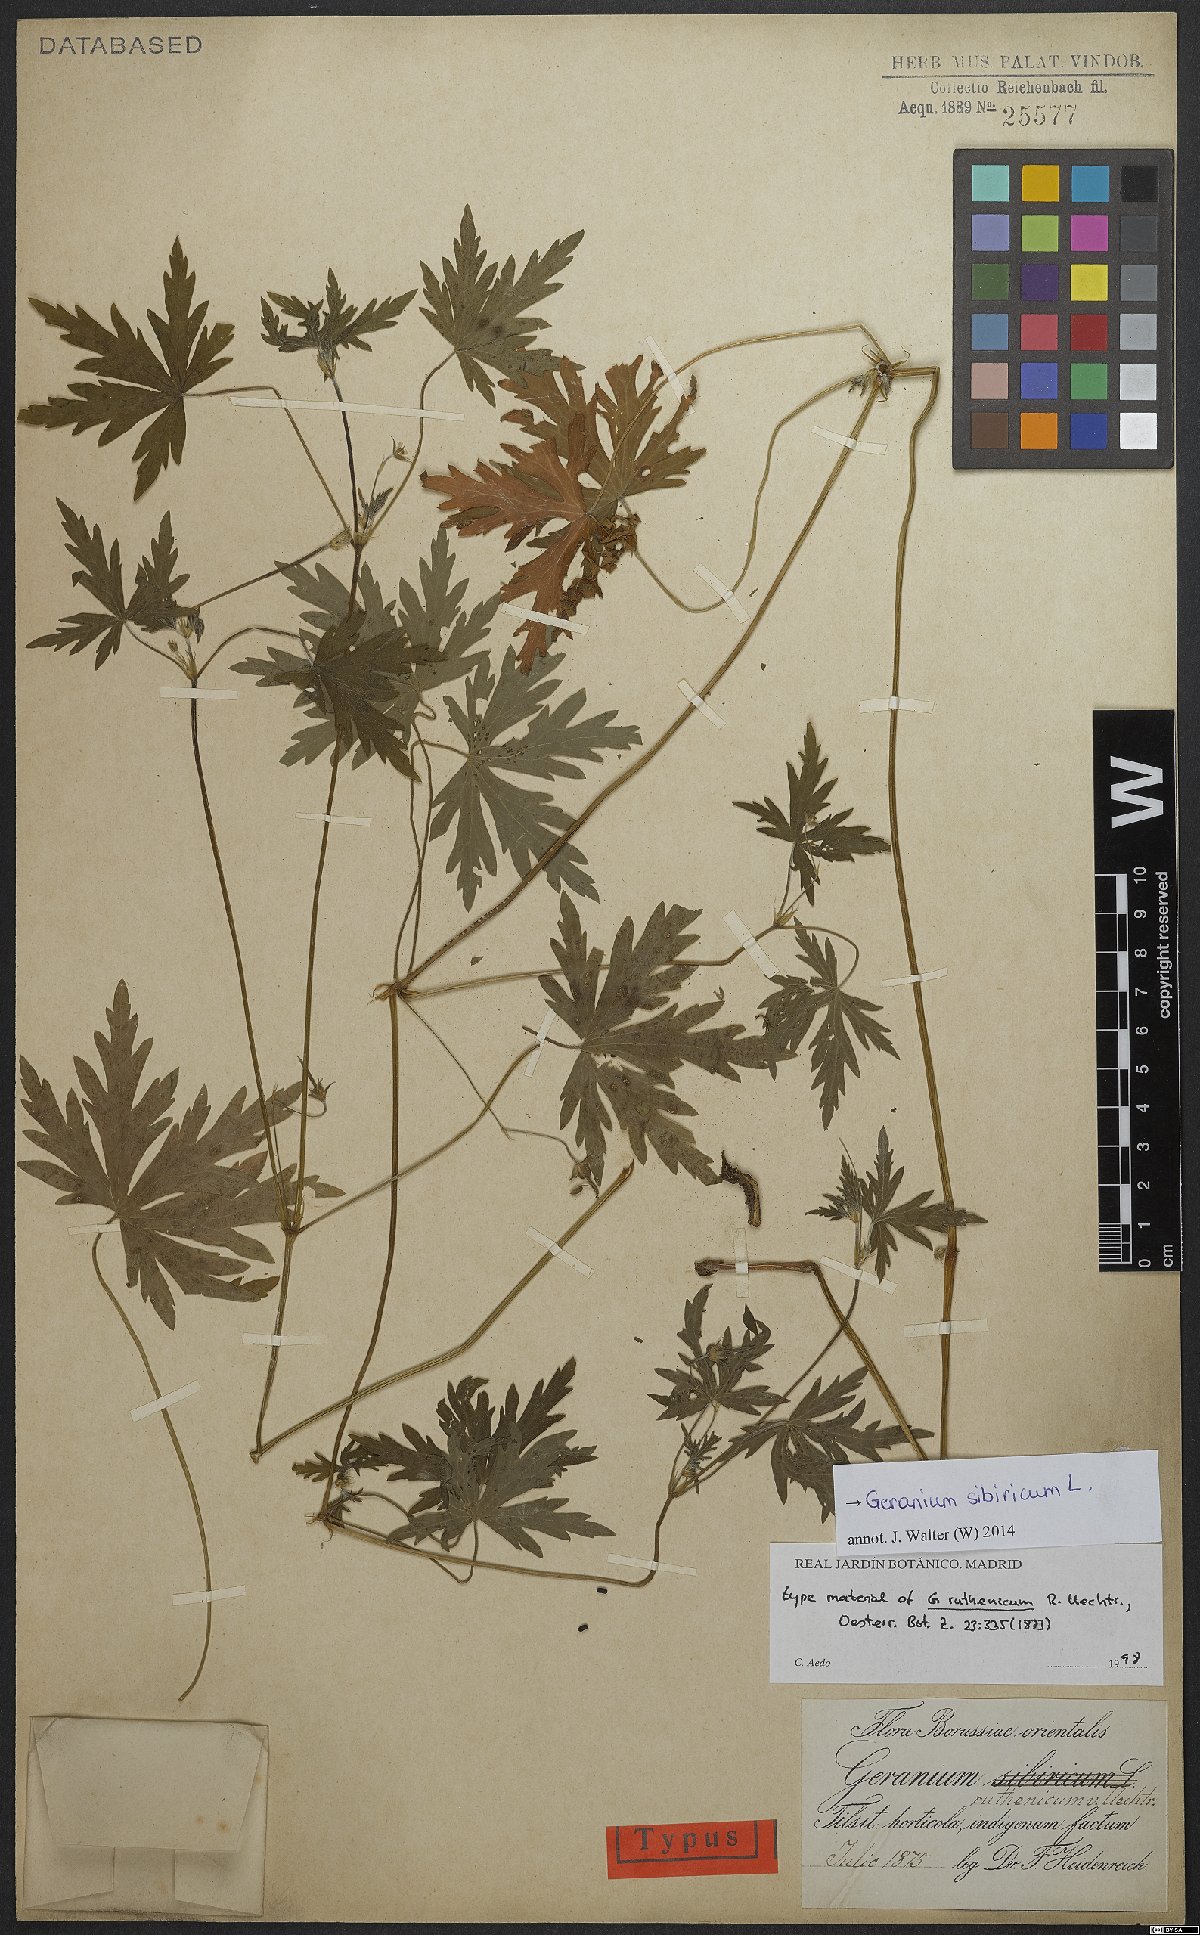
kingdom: Plantae
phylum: Tracheophyta
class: Magnoliopsida
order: Geraniales
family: Geraniaceae
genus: Geranium
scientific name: Geranium sibiricum
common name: Siberian crane's-bill
